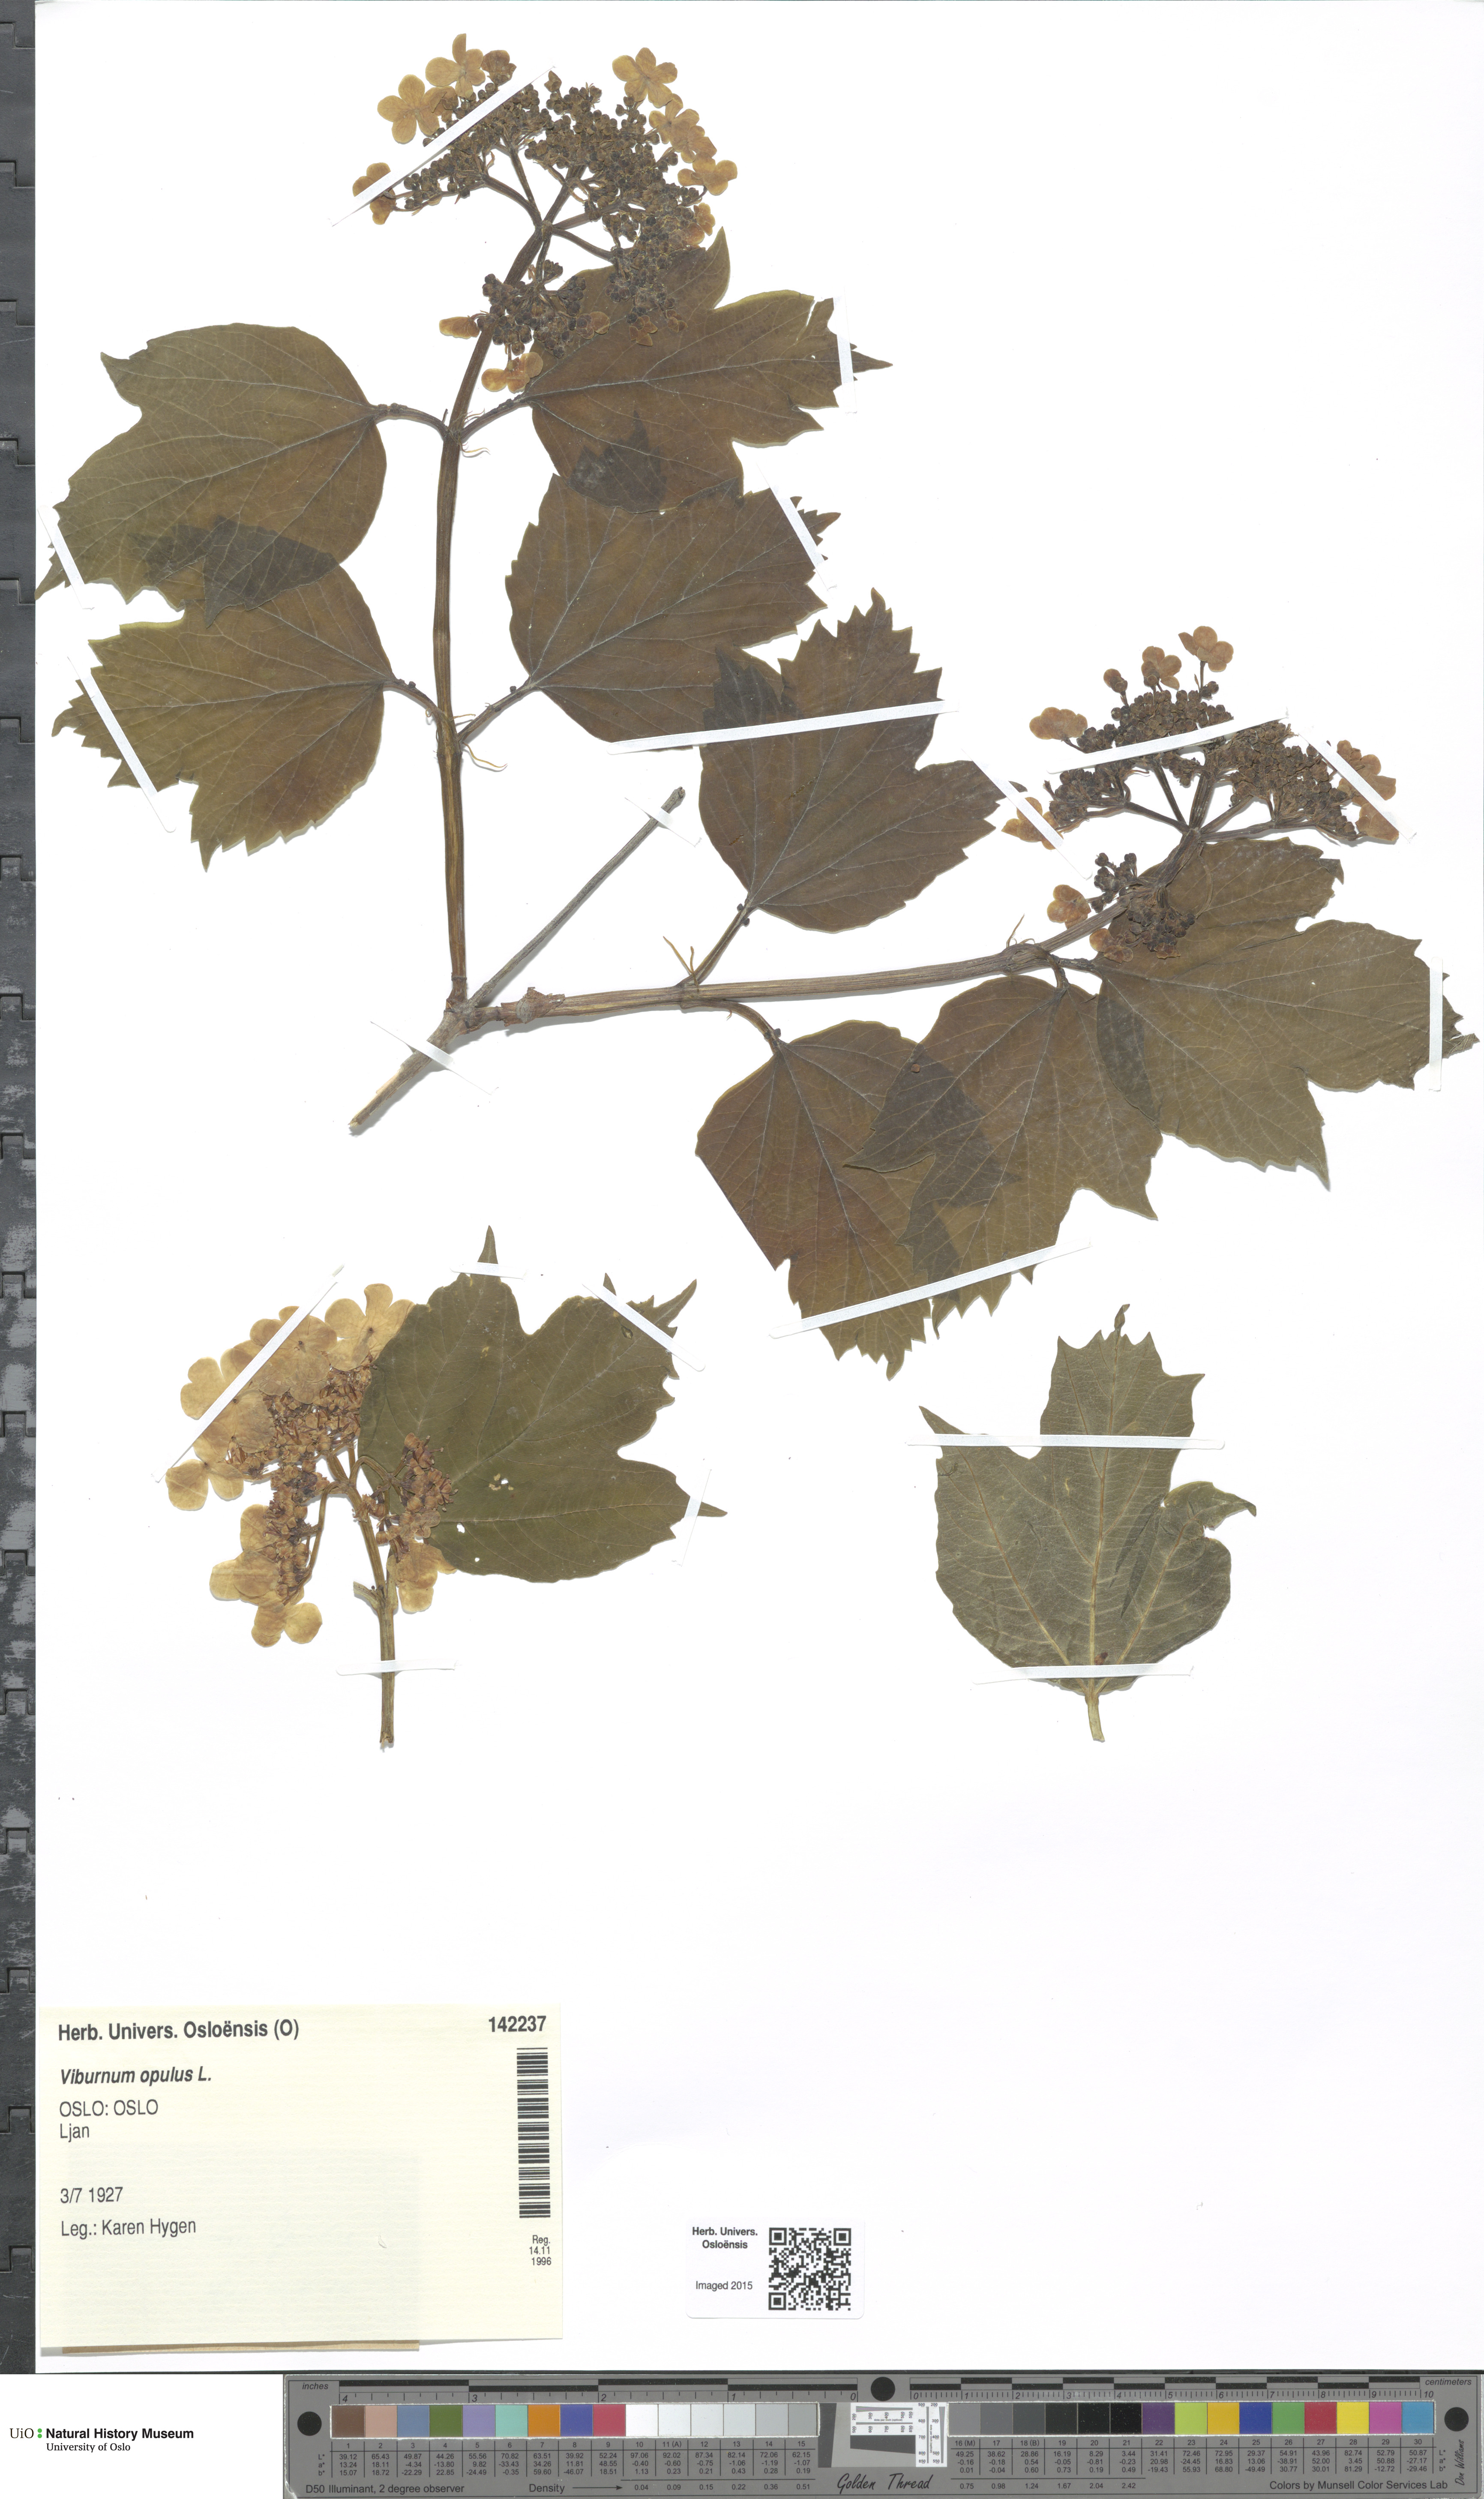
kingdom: Plantae
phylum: Tracheophyta
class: Magnoliopsida
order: Dipsacales
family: Viburnaceae
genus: Viburnum
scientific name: Viburnum opulus
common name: Guelder-rose
